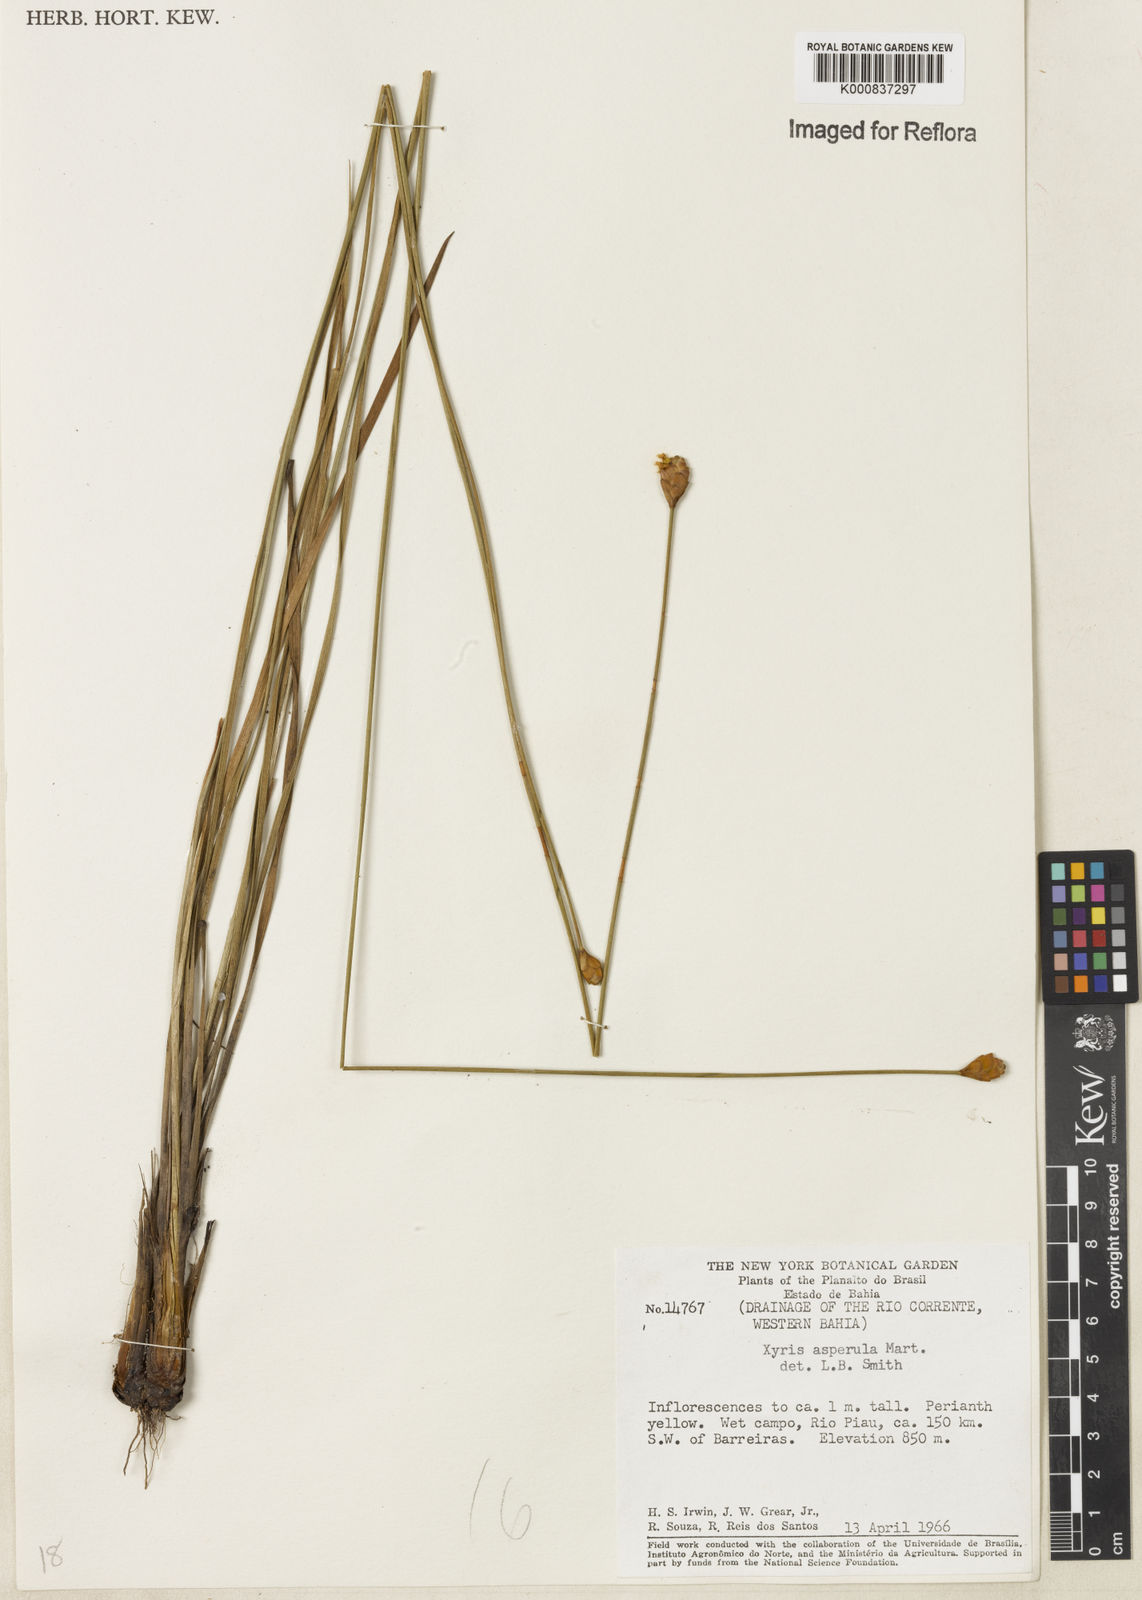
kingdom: Plantae
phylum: Tracheophyta
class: Liliopsida
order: Poales
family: Xyridaceae
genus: Xyris
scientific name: Xyris asperula
